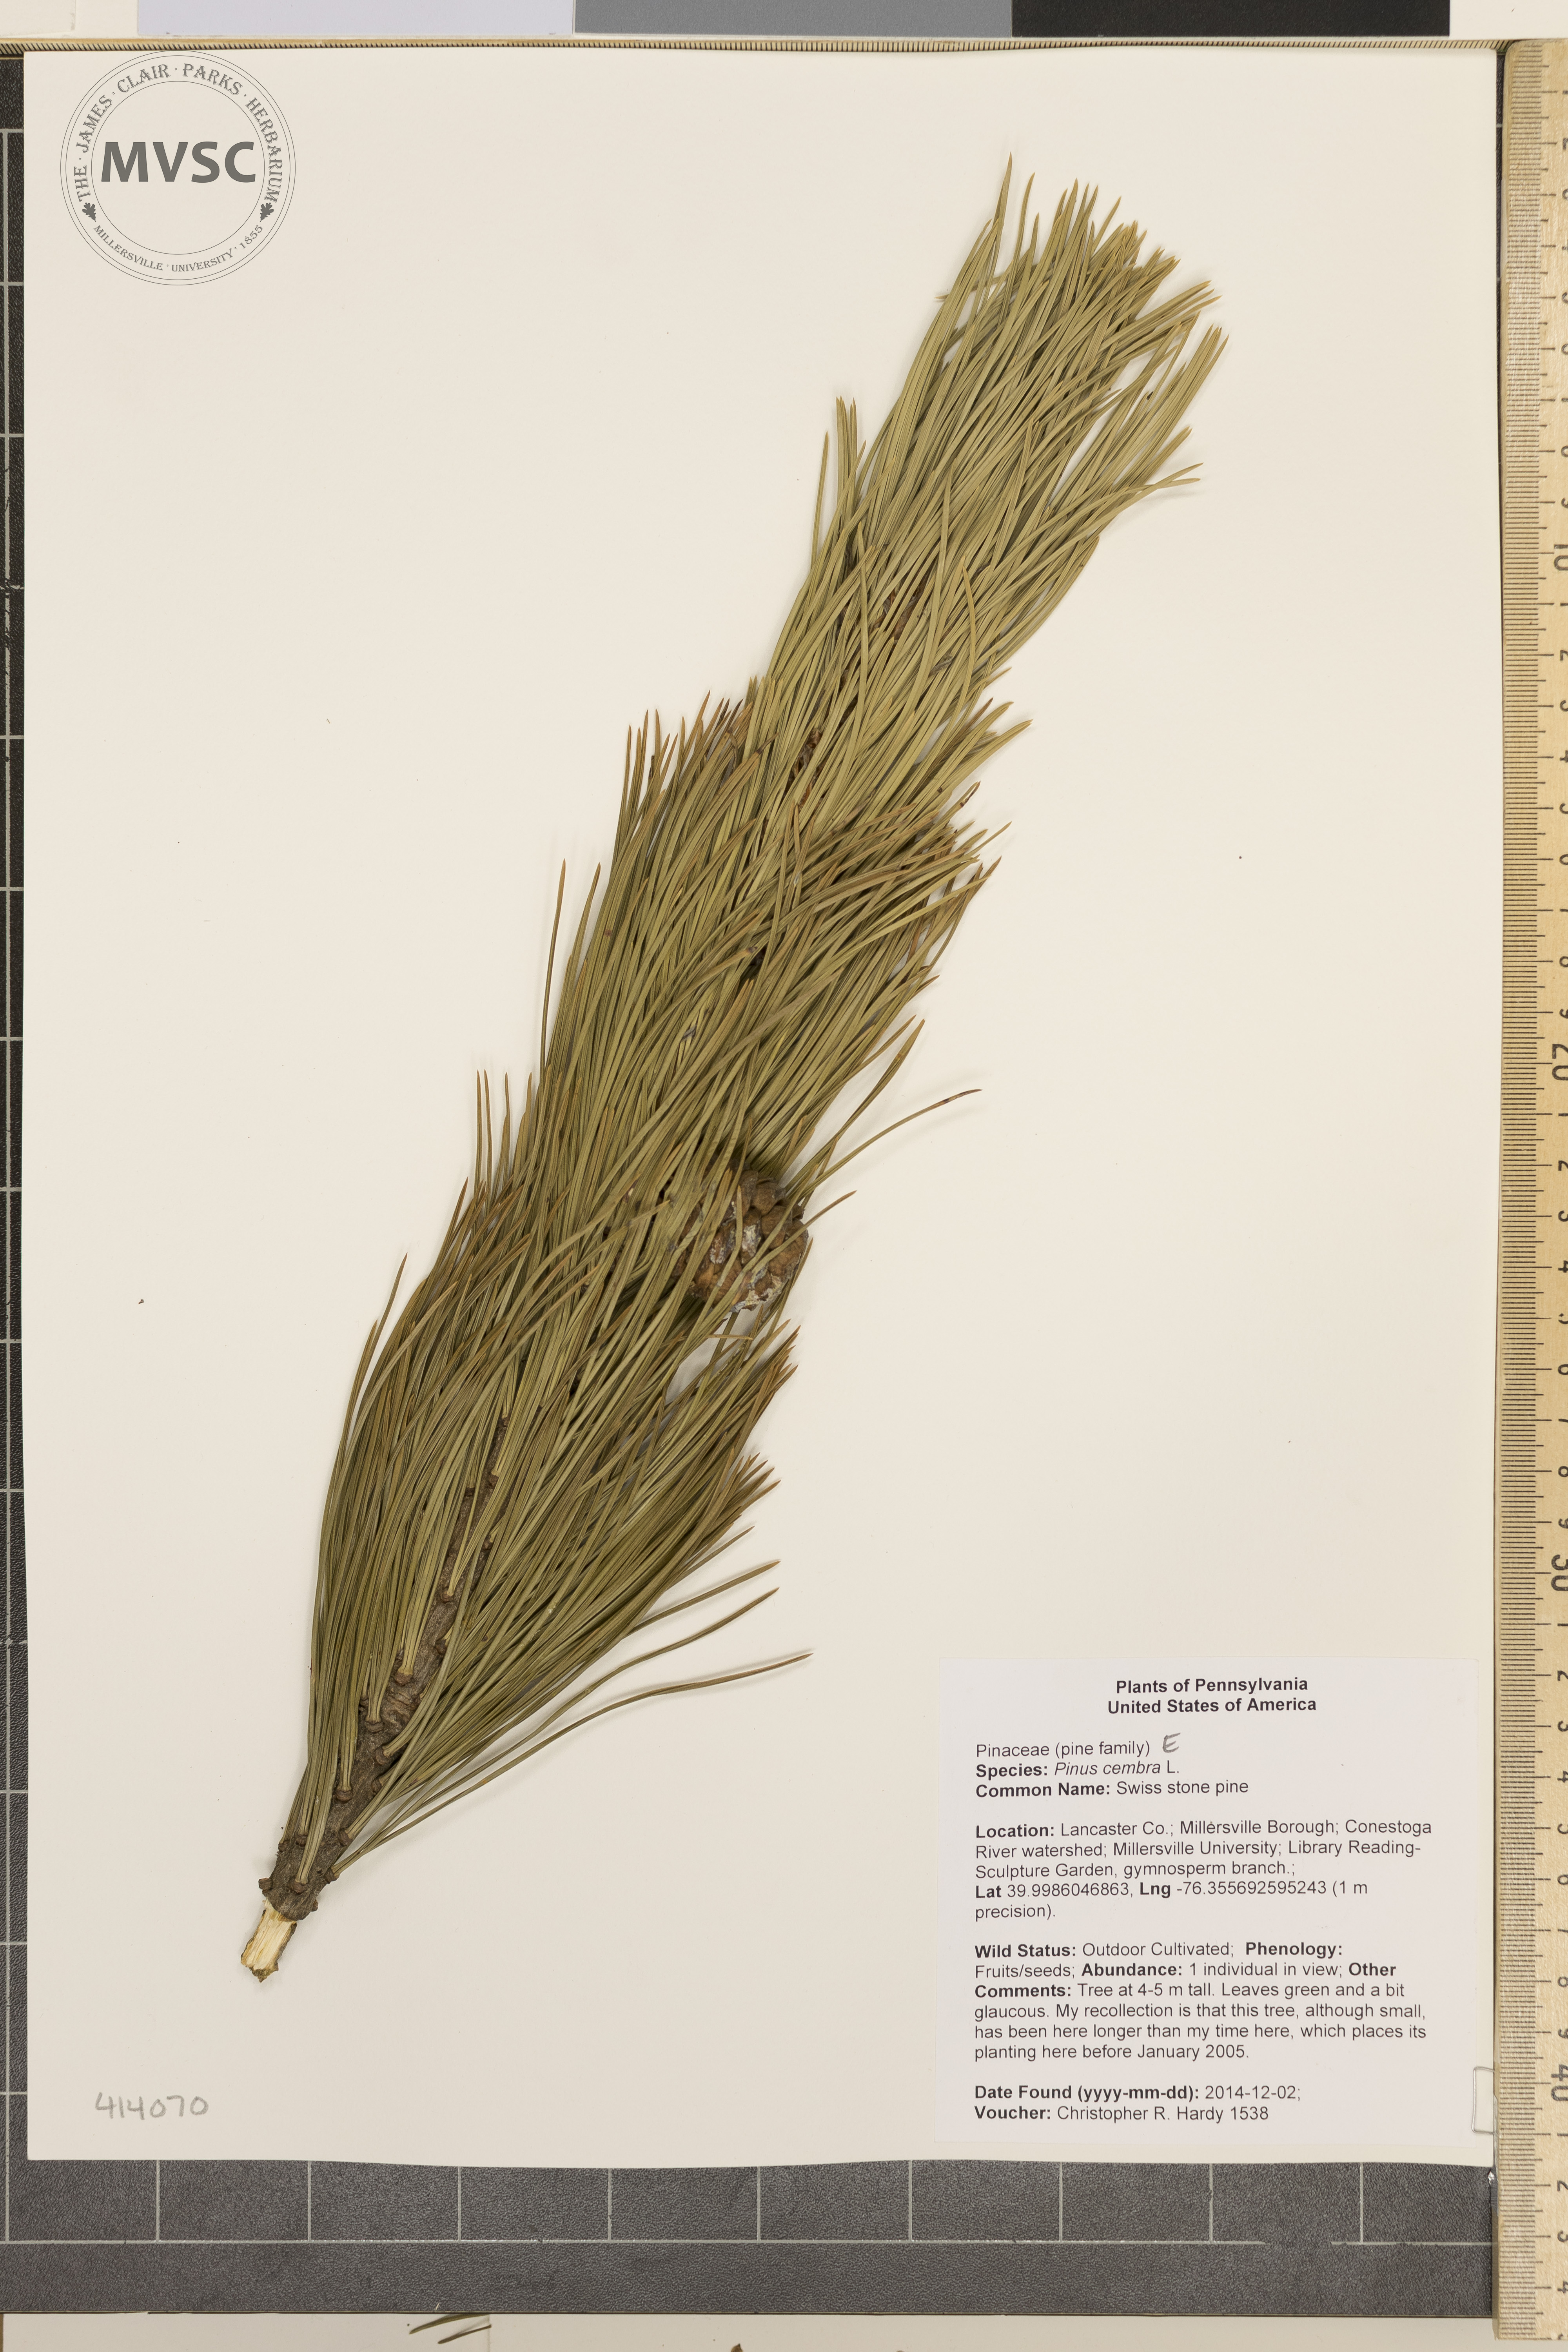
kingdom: Plantae
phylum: Tracheophyta
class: Pinopsida
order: Pinales
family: Pinaceae
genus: Pinus
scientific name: Pinus cembra
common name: Swiss stone pine
